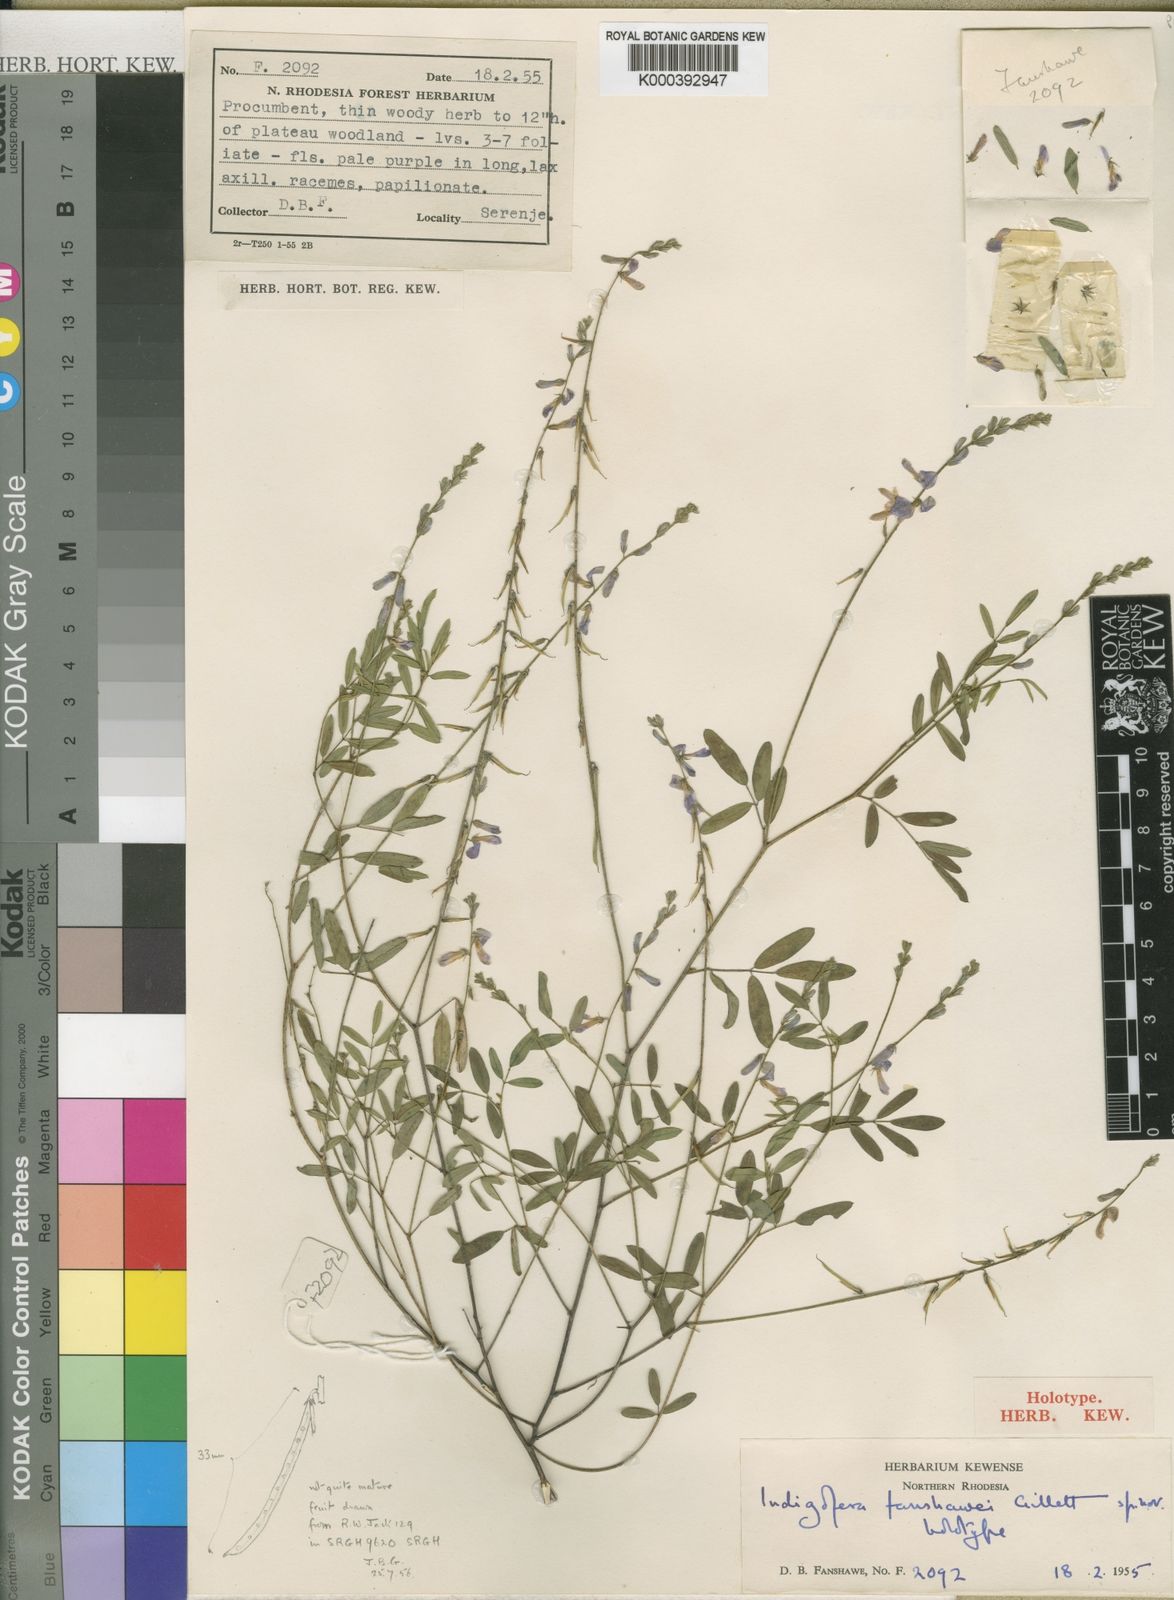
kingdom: Plantae
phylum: Tracheophyta
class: Magnoliopsida
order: Fabales
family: Fabaceae
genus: Indigofera
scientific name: Indigofera fanshawei
